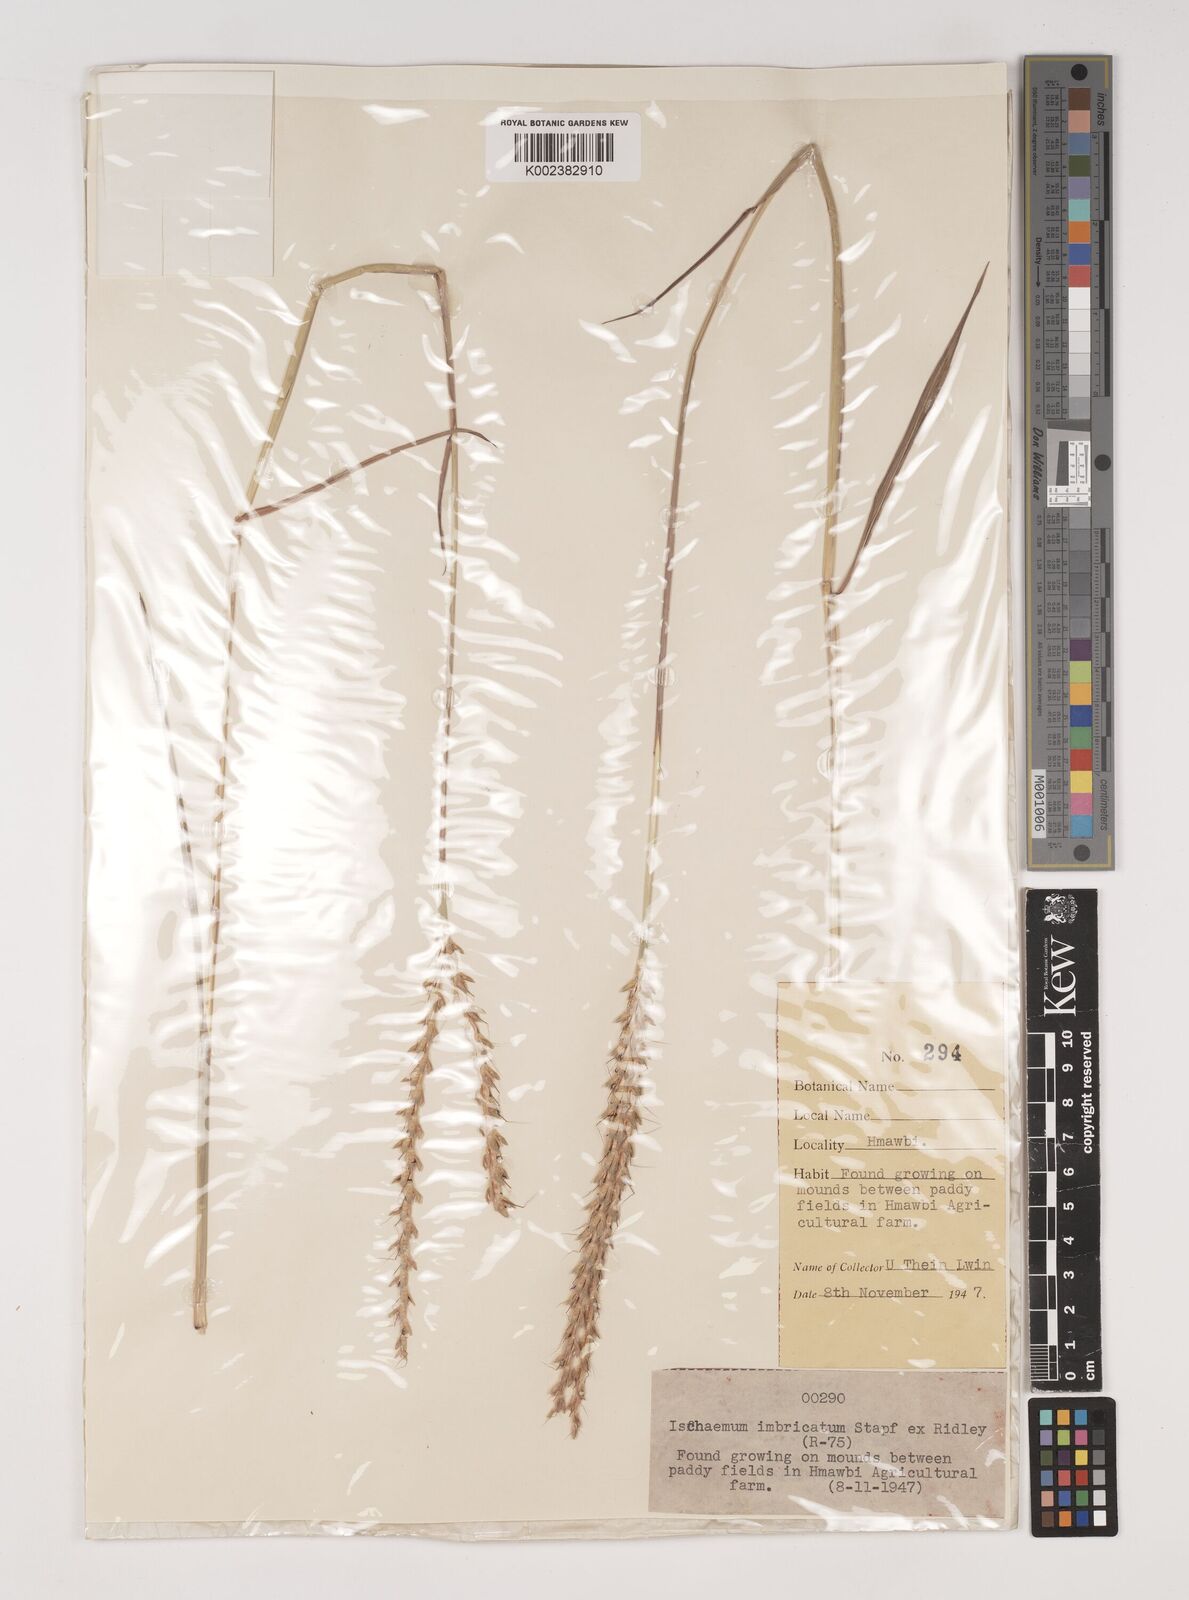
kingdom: Plantae
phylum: Tracheophyta
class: Liliopsida
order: Poales
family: Poaceae
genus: Ischaemum
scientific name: Ischaemum
